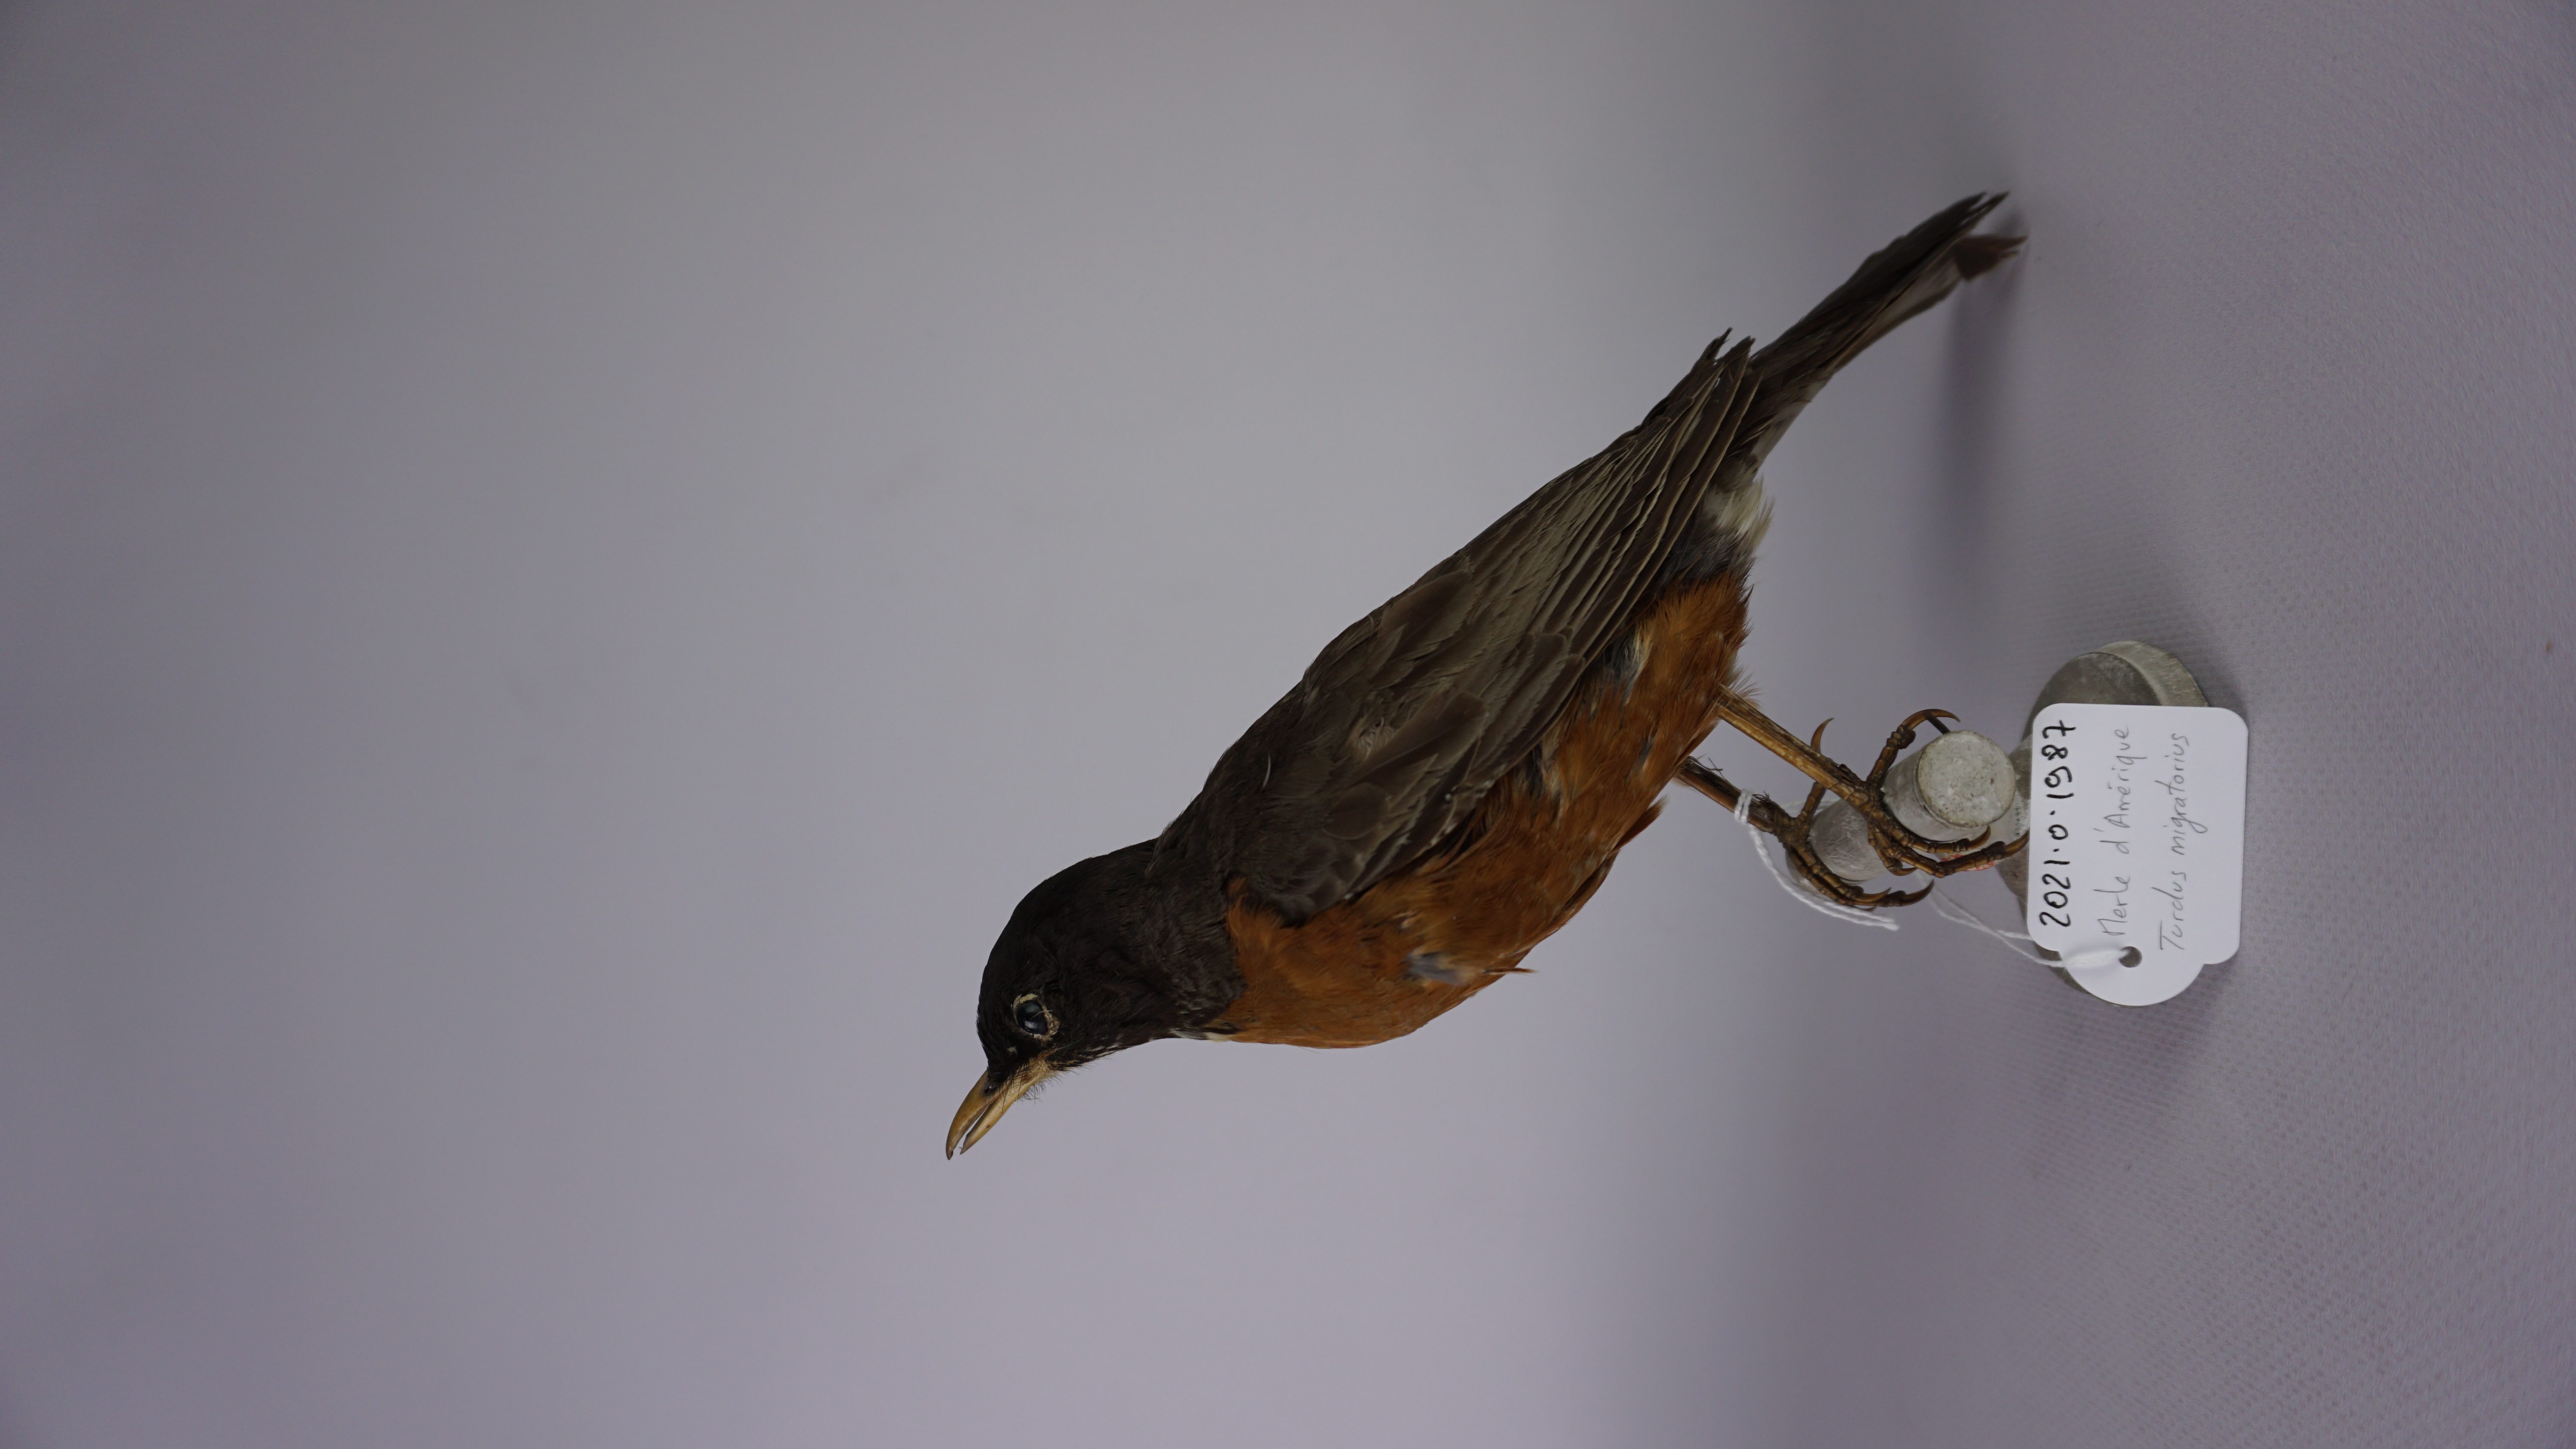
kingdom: Animalia
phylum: Chordata
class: Aves
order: Passeriformes
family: Turdidae
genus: Turdus
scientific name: Turdus migratorius
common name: American robin
